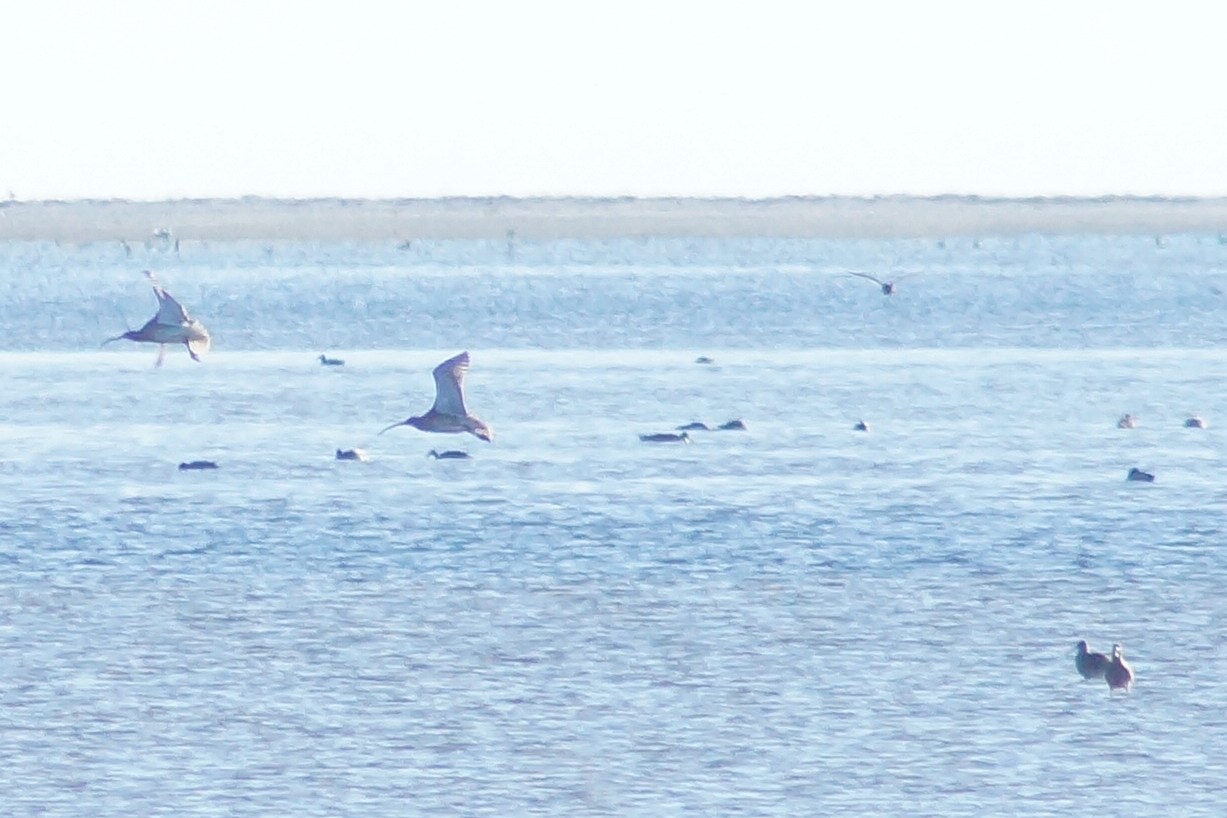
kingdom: Animalia
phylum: Chordata
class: Aves
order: Charadriiformes
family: Scolopacidae
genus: Numenius
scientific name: Numenius arquata
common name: Storspove
